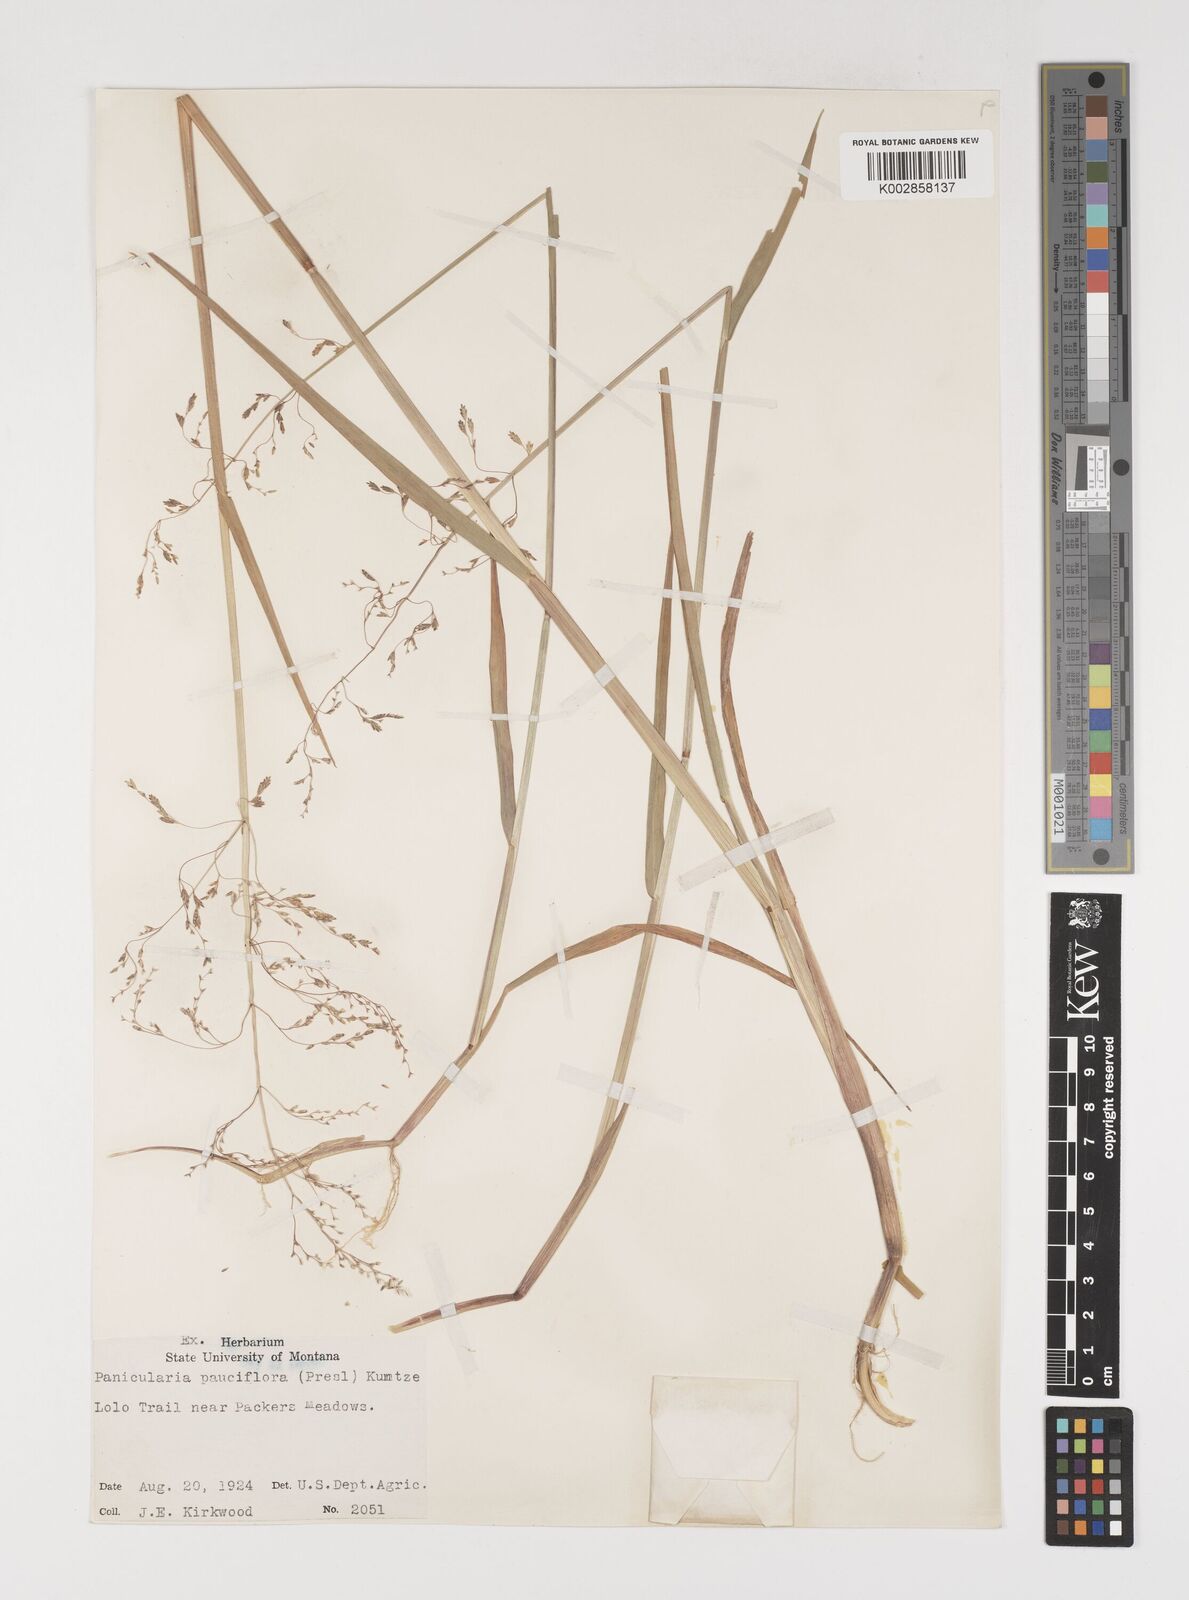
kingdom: Plantae
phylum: Tracheophyta
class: Liliopsida
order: Poales
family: Poaceae
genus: Torreyochloa
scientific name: Torreyochloa pallida
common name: Pale false mannagrass
